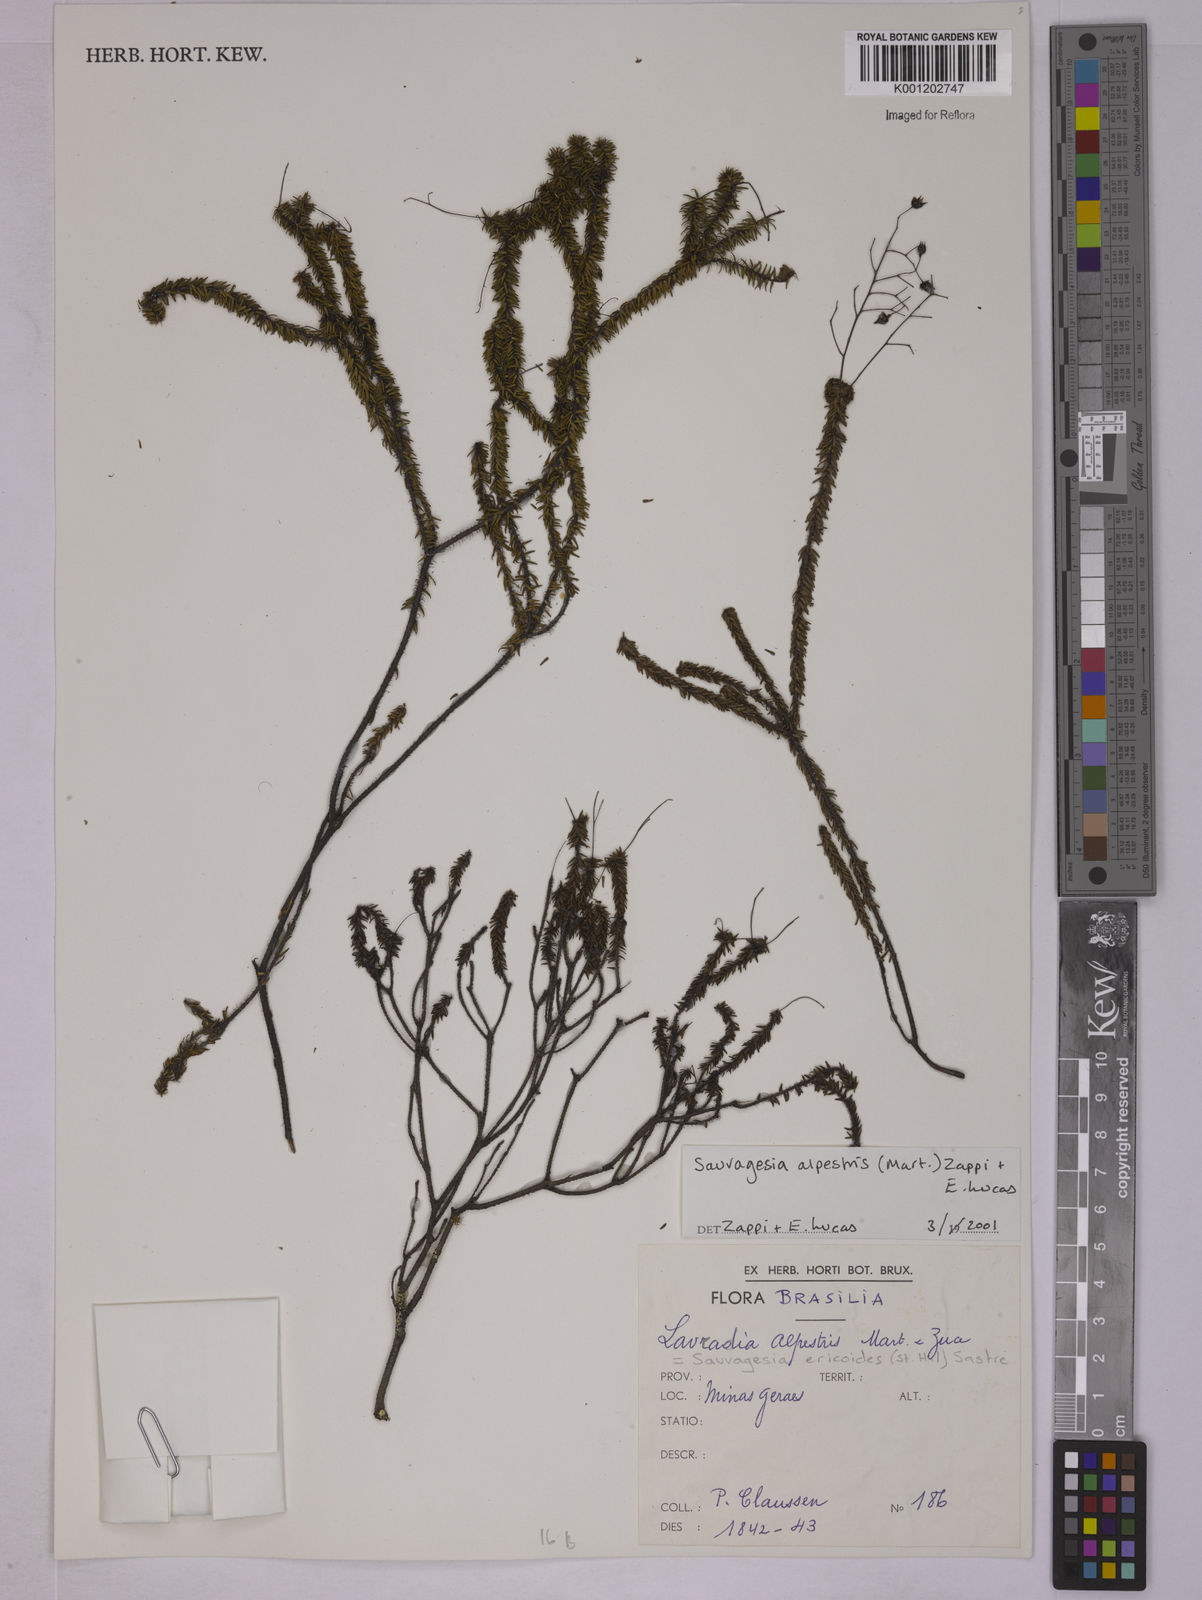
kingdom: Plantae
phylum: Tracheophyta
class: Magnoliopsida
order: Malpighiales
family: Ochnaceae
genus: Sauvagesia
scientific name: Sauvagesia alpestris
